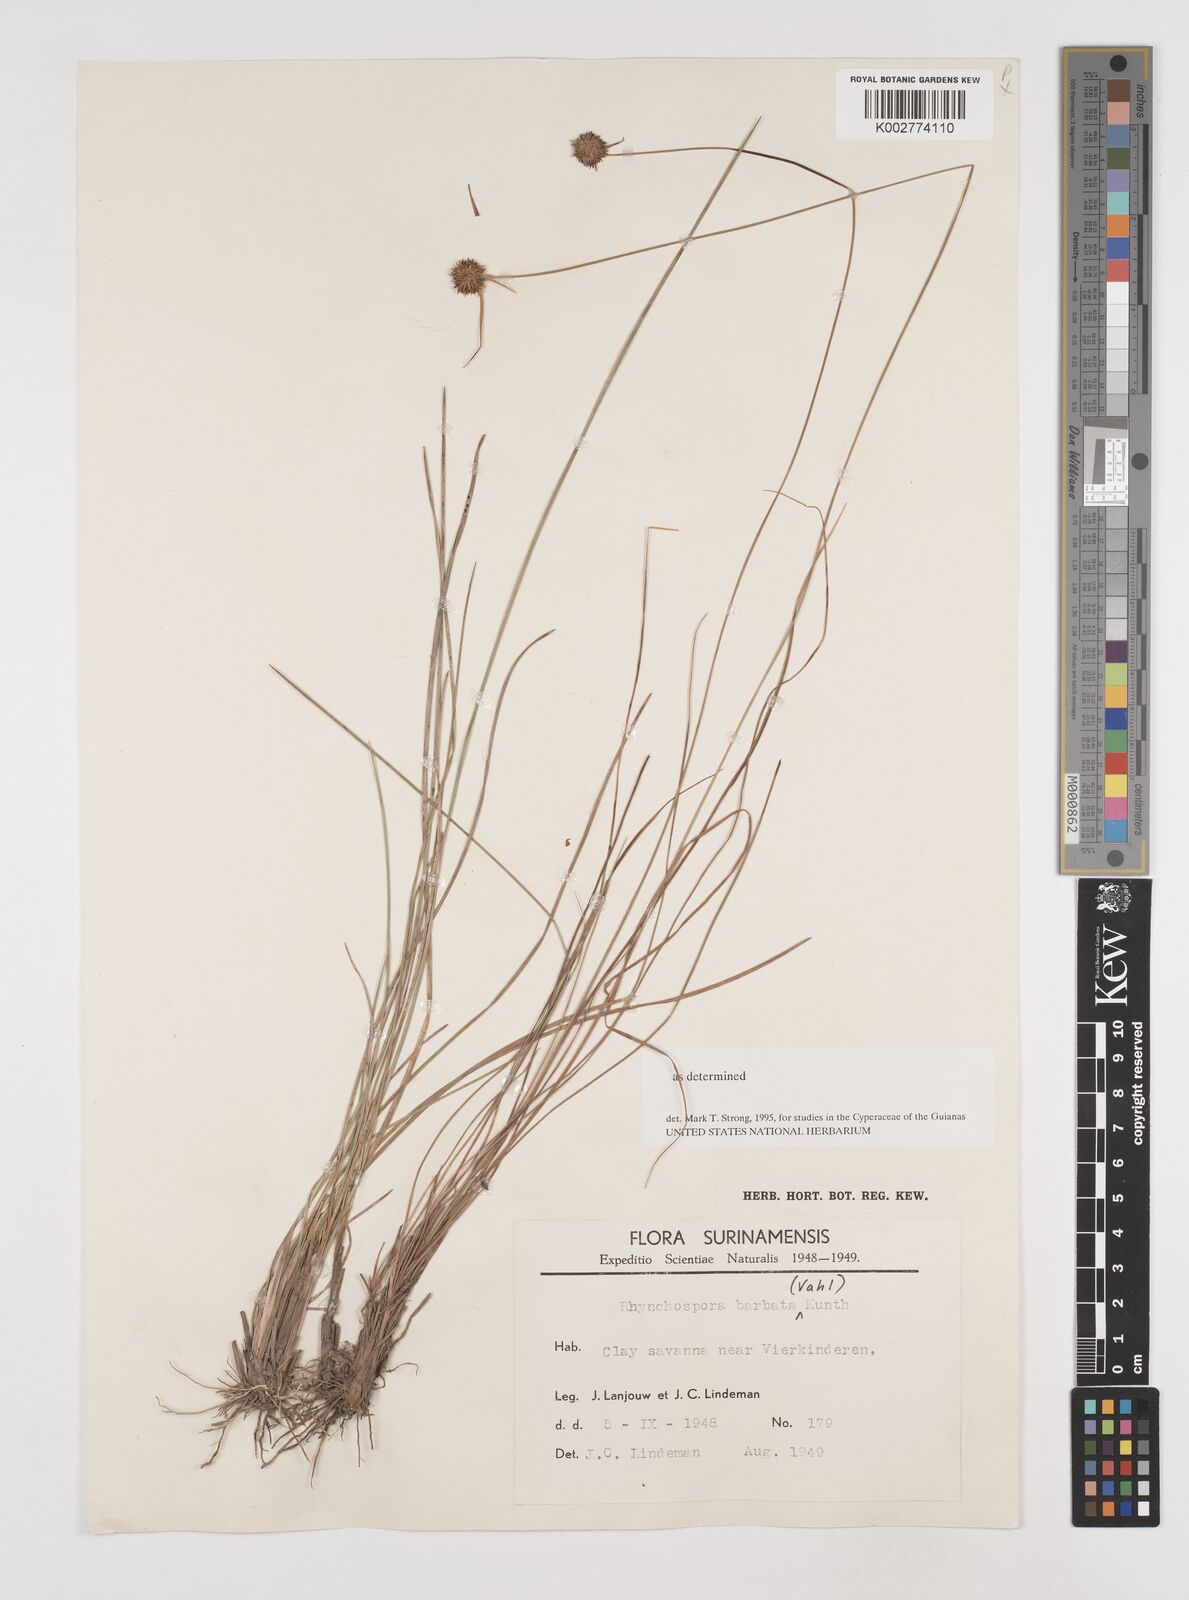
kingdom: Plantae
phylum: Tracheophyta
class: Liliopsida
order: Poales
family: Cyperaceae
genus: Rhynchospora
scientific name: Rhynchospora barbata
